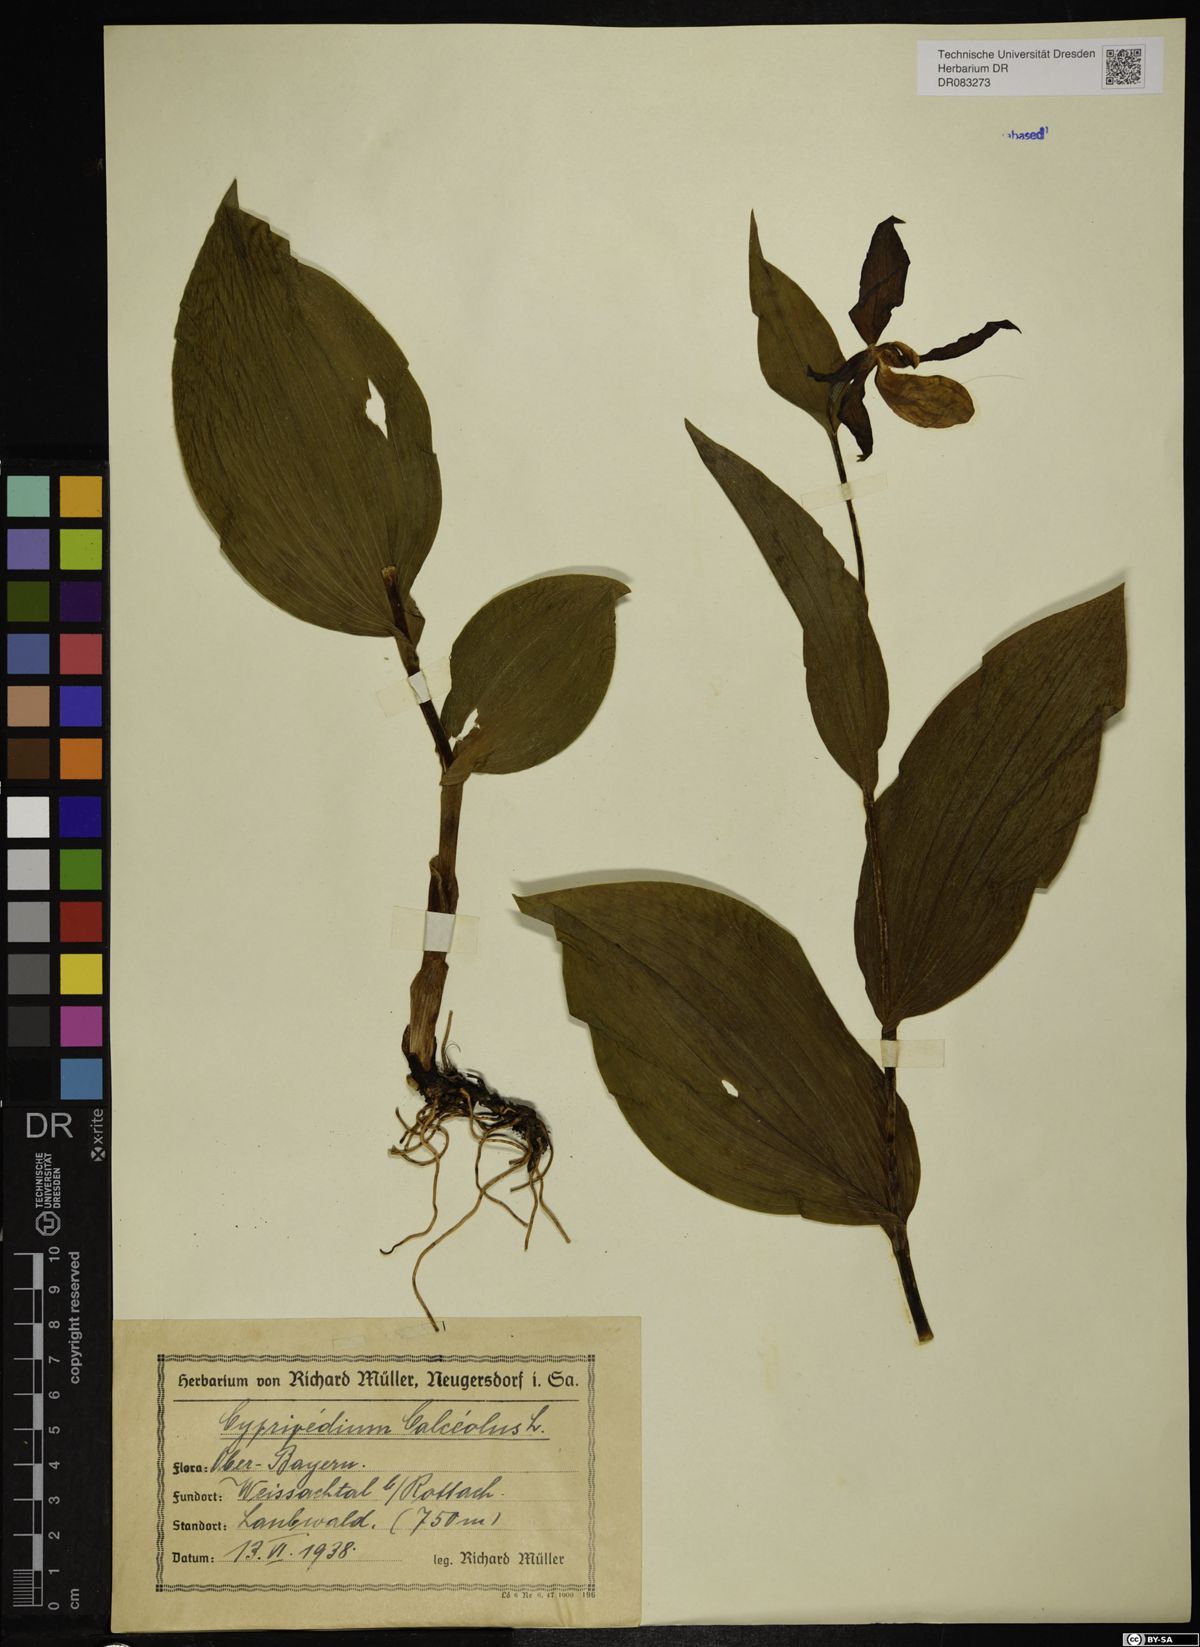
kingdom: Plantae
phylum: Tracheophyta
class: Liliopsida
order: Asparagales
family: Orchidaceae
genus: Cypripedium
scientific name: Cypripedium calceolus
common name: Lady's-slipper
